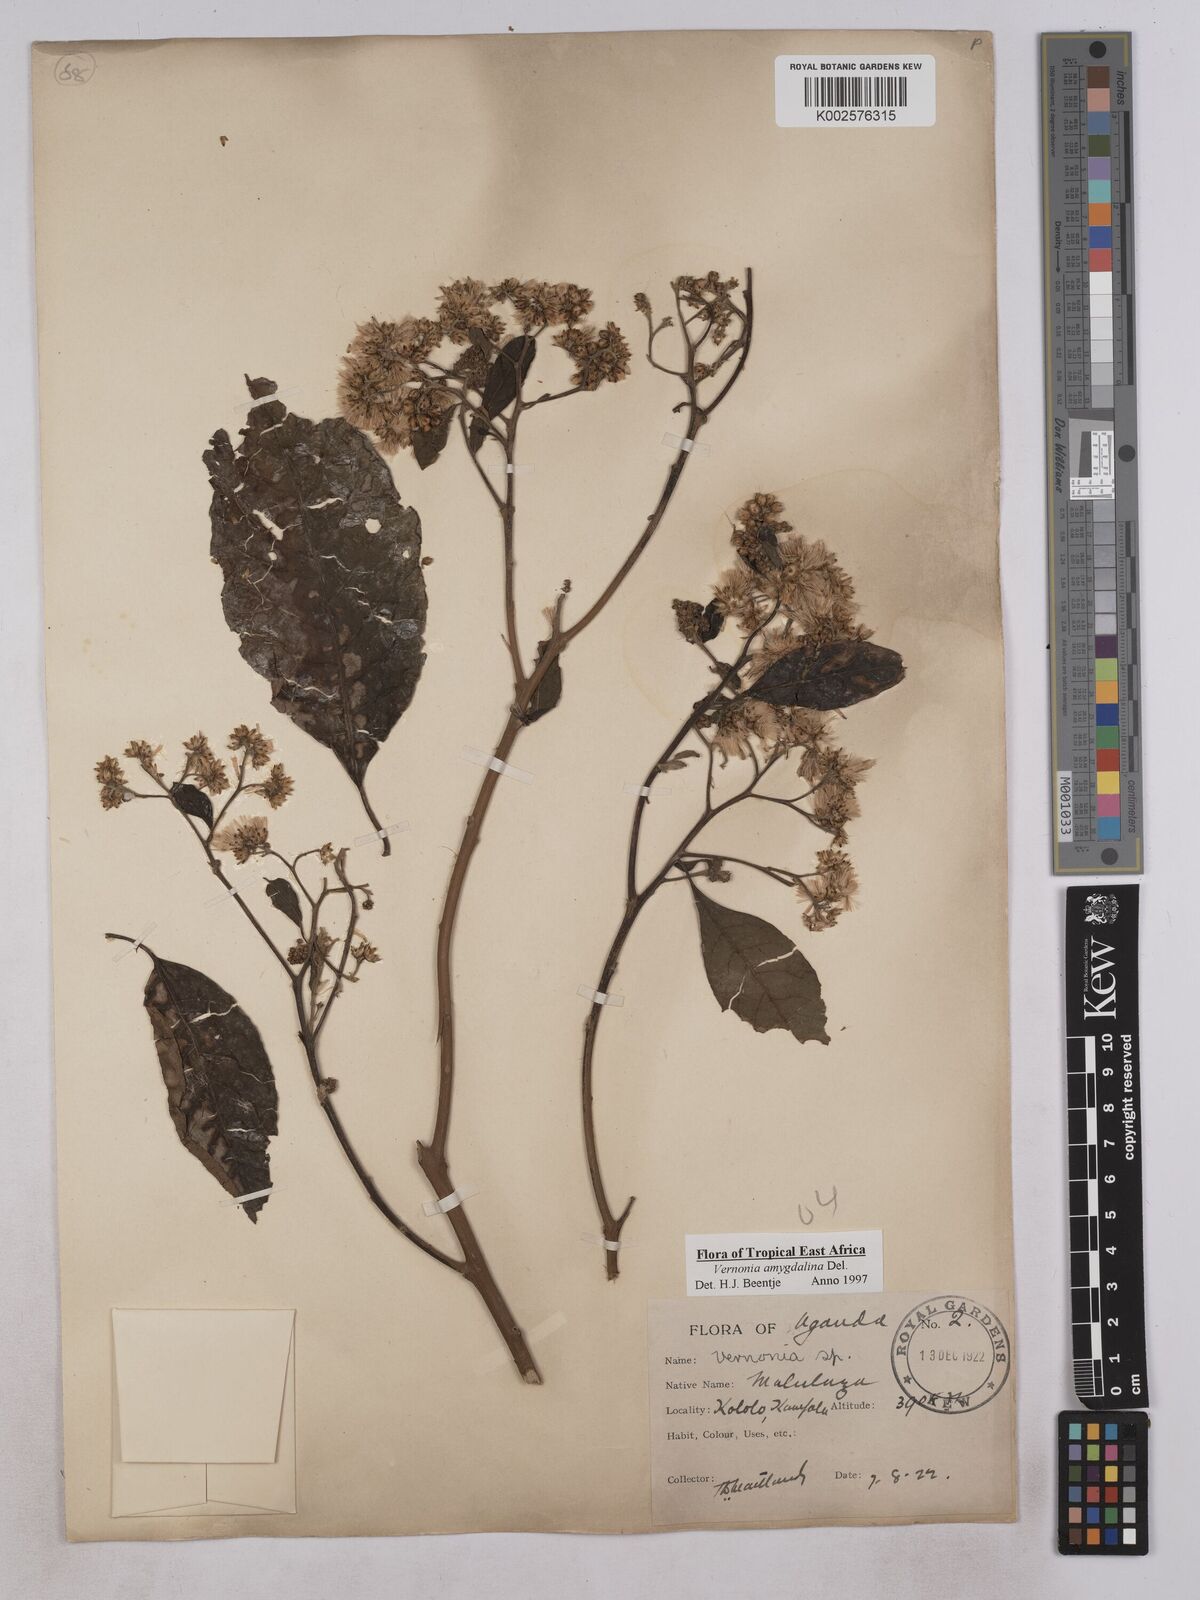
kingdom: Plantae
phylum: Tracheophyta
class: Magnoliopsida
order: Asterales
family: Asteraceae
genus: Gymnanthemum
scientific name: Gymnanthemum amygdalinum
